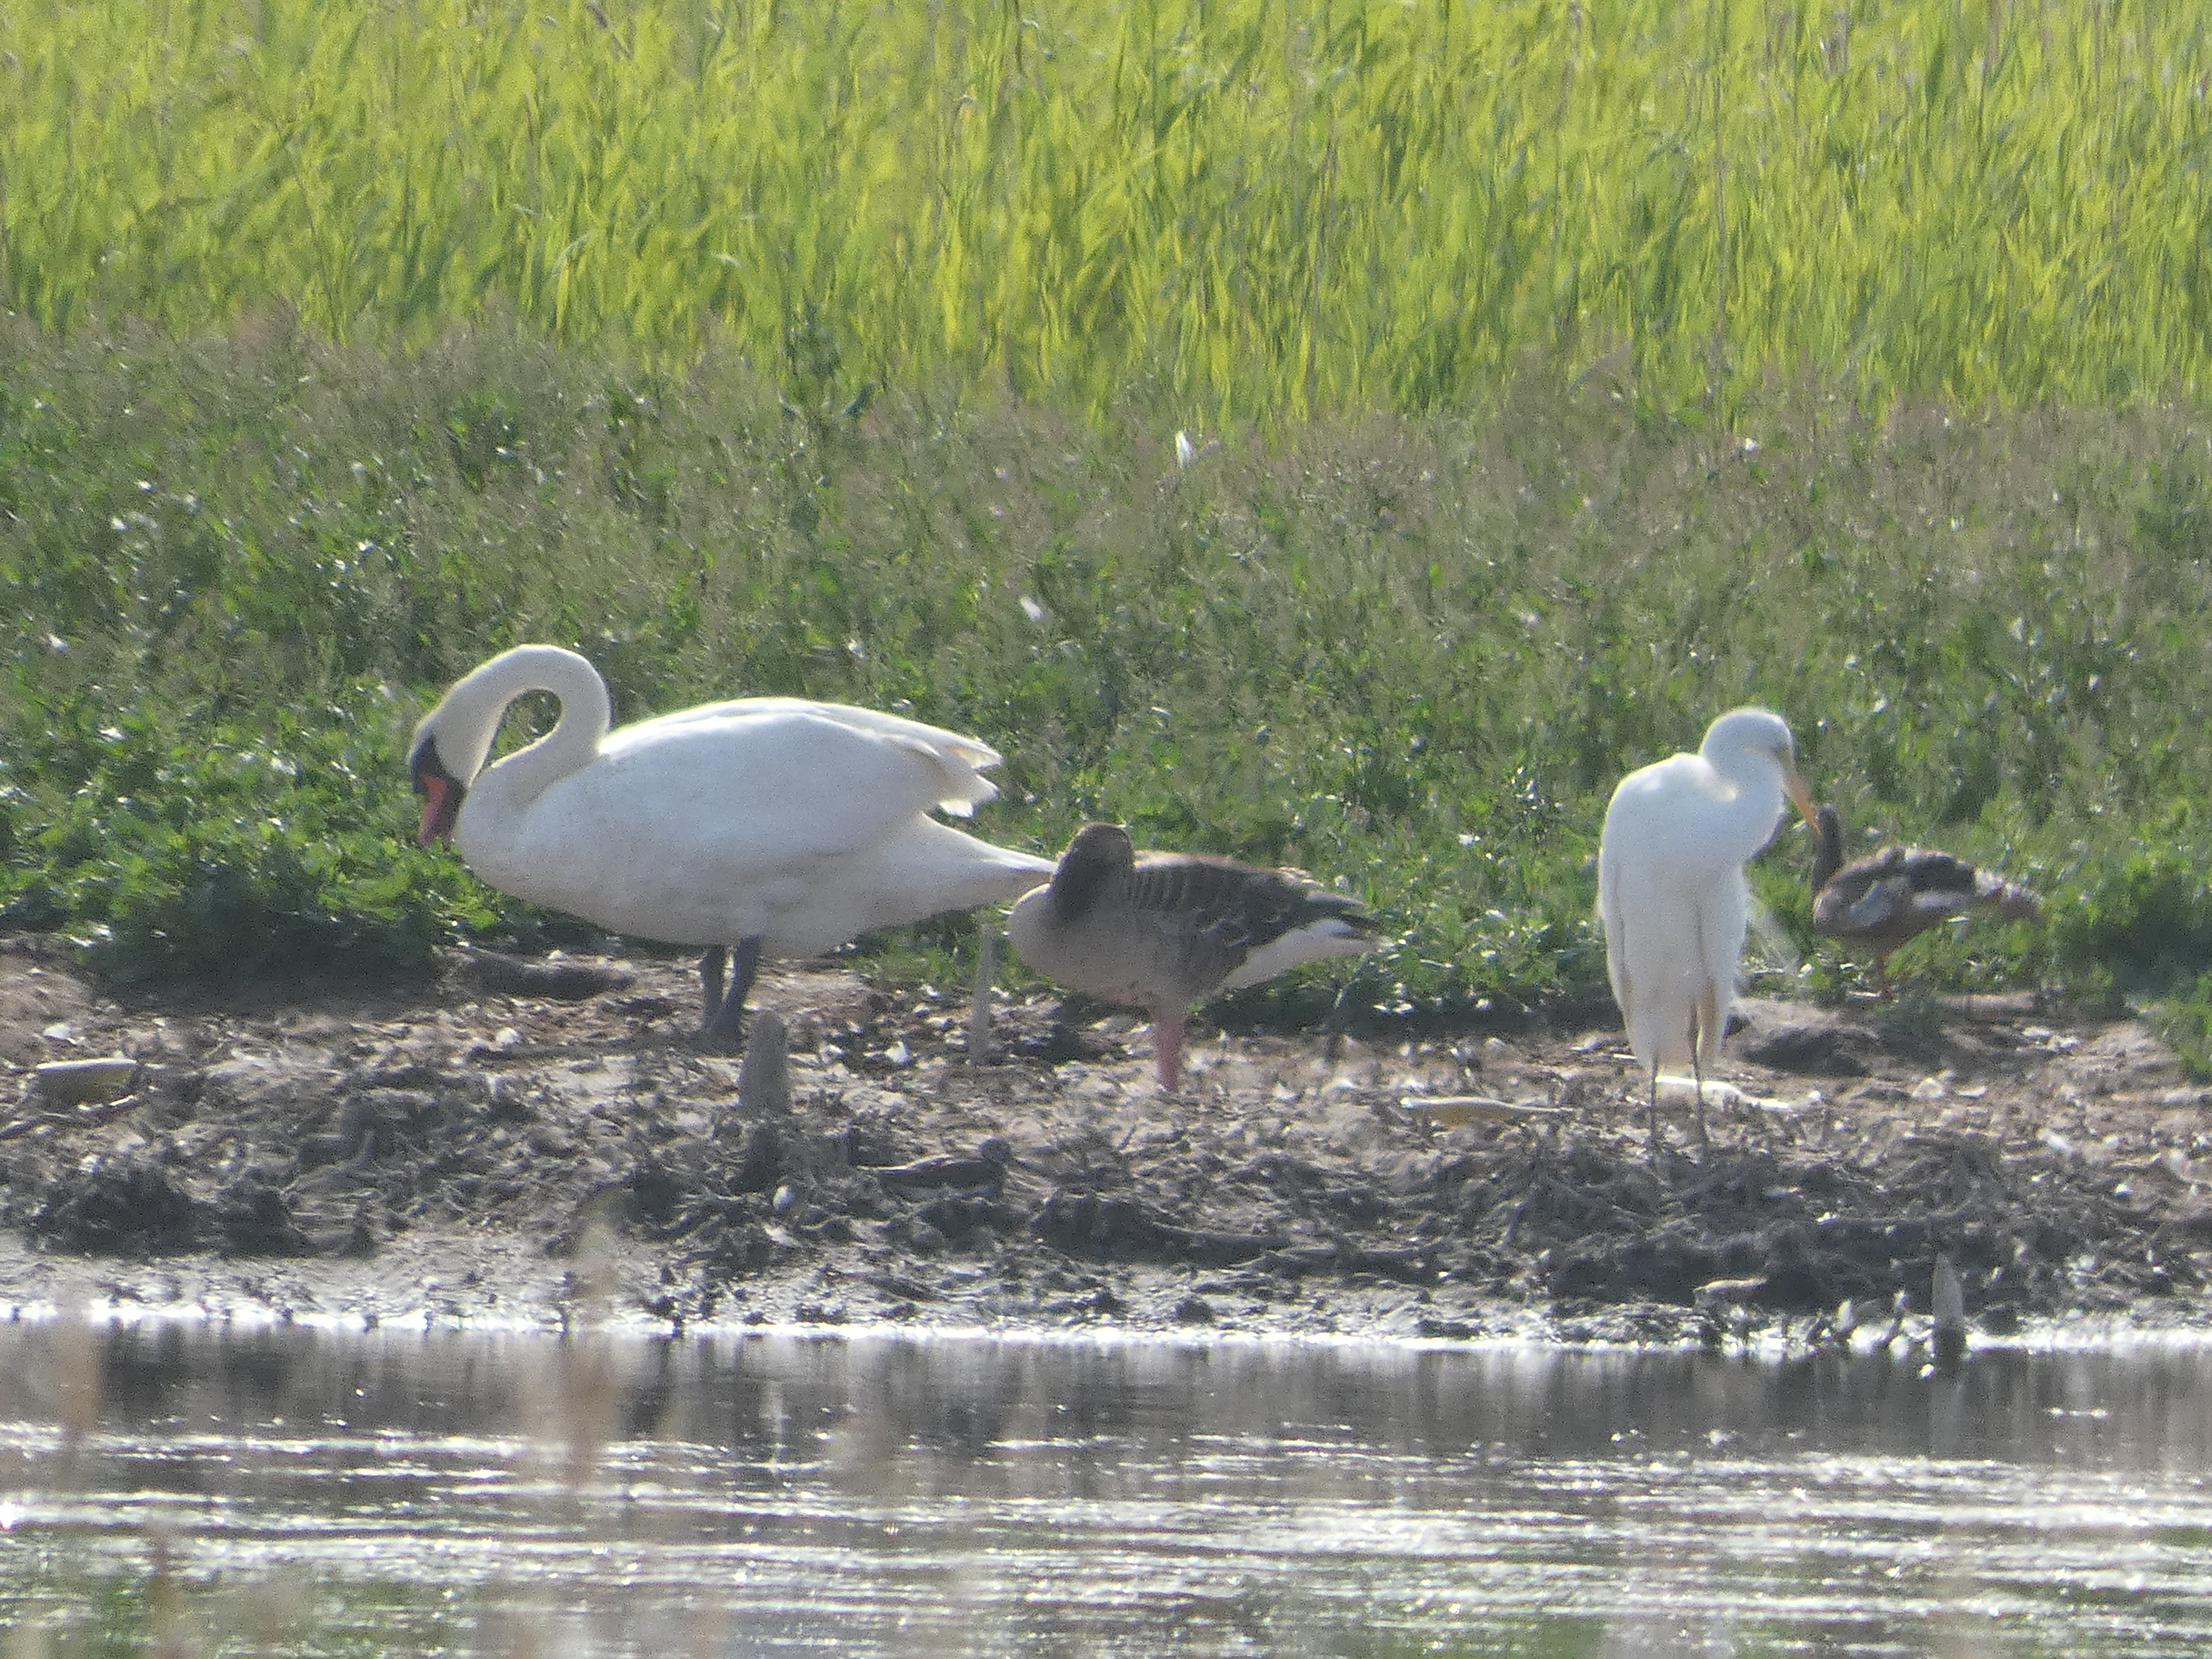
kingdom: Animalia
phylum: Chordata
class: Aves
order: Pelecaniformes
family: Ardeidae
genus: Ardea
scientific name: Ardea alba
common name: Sølvhejre
